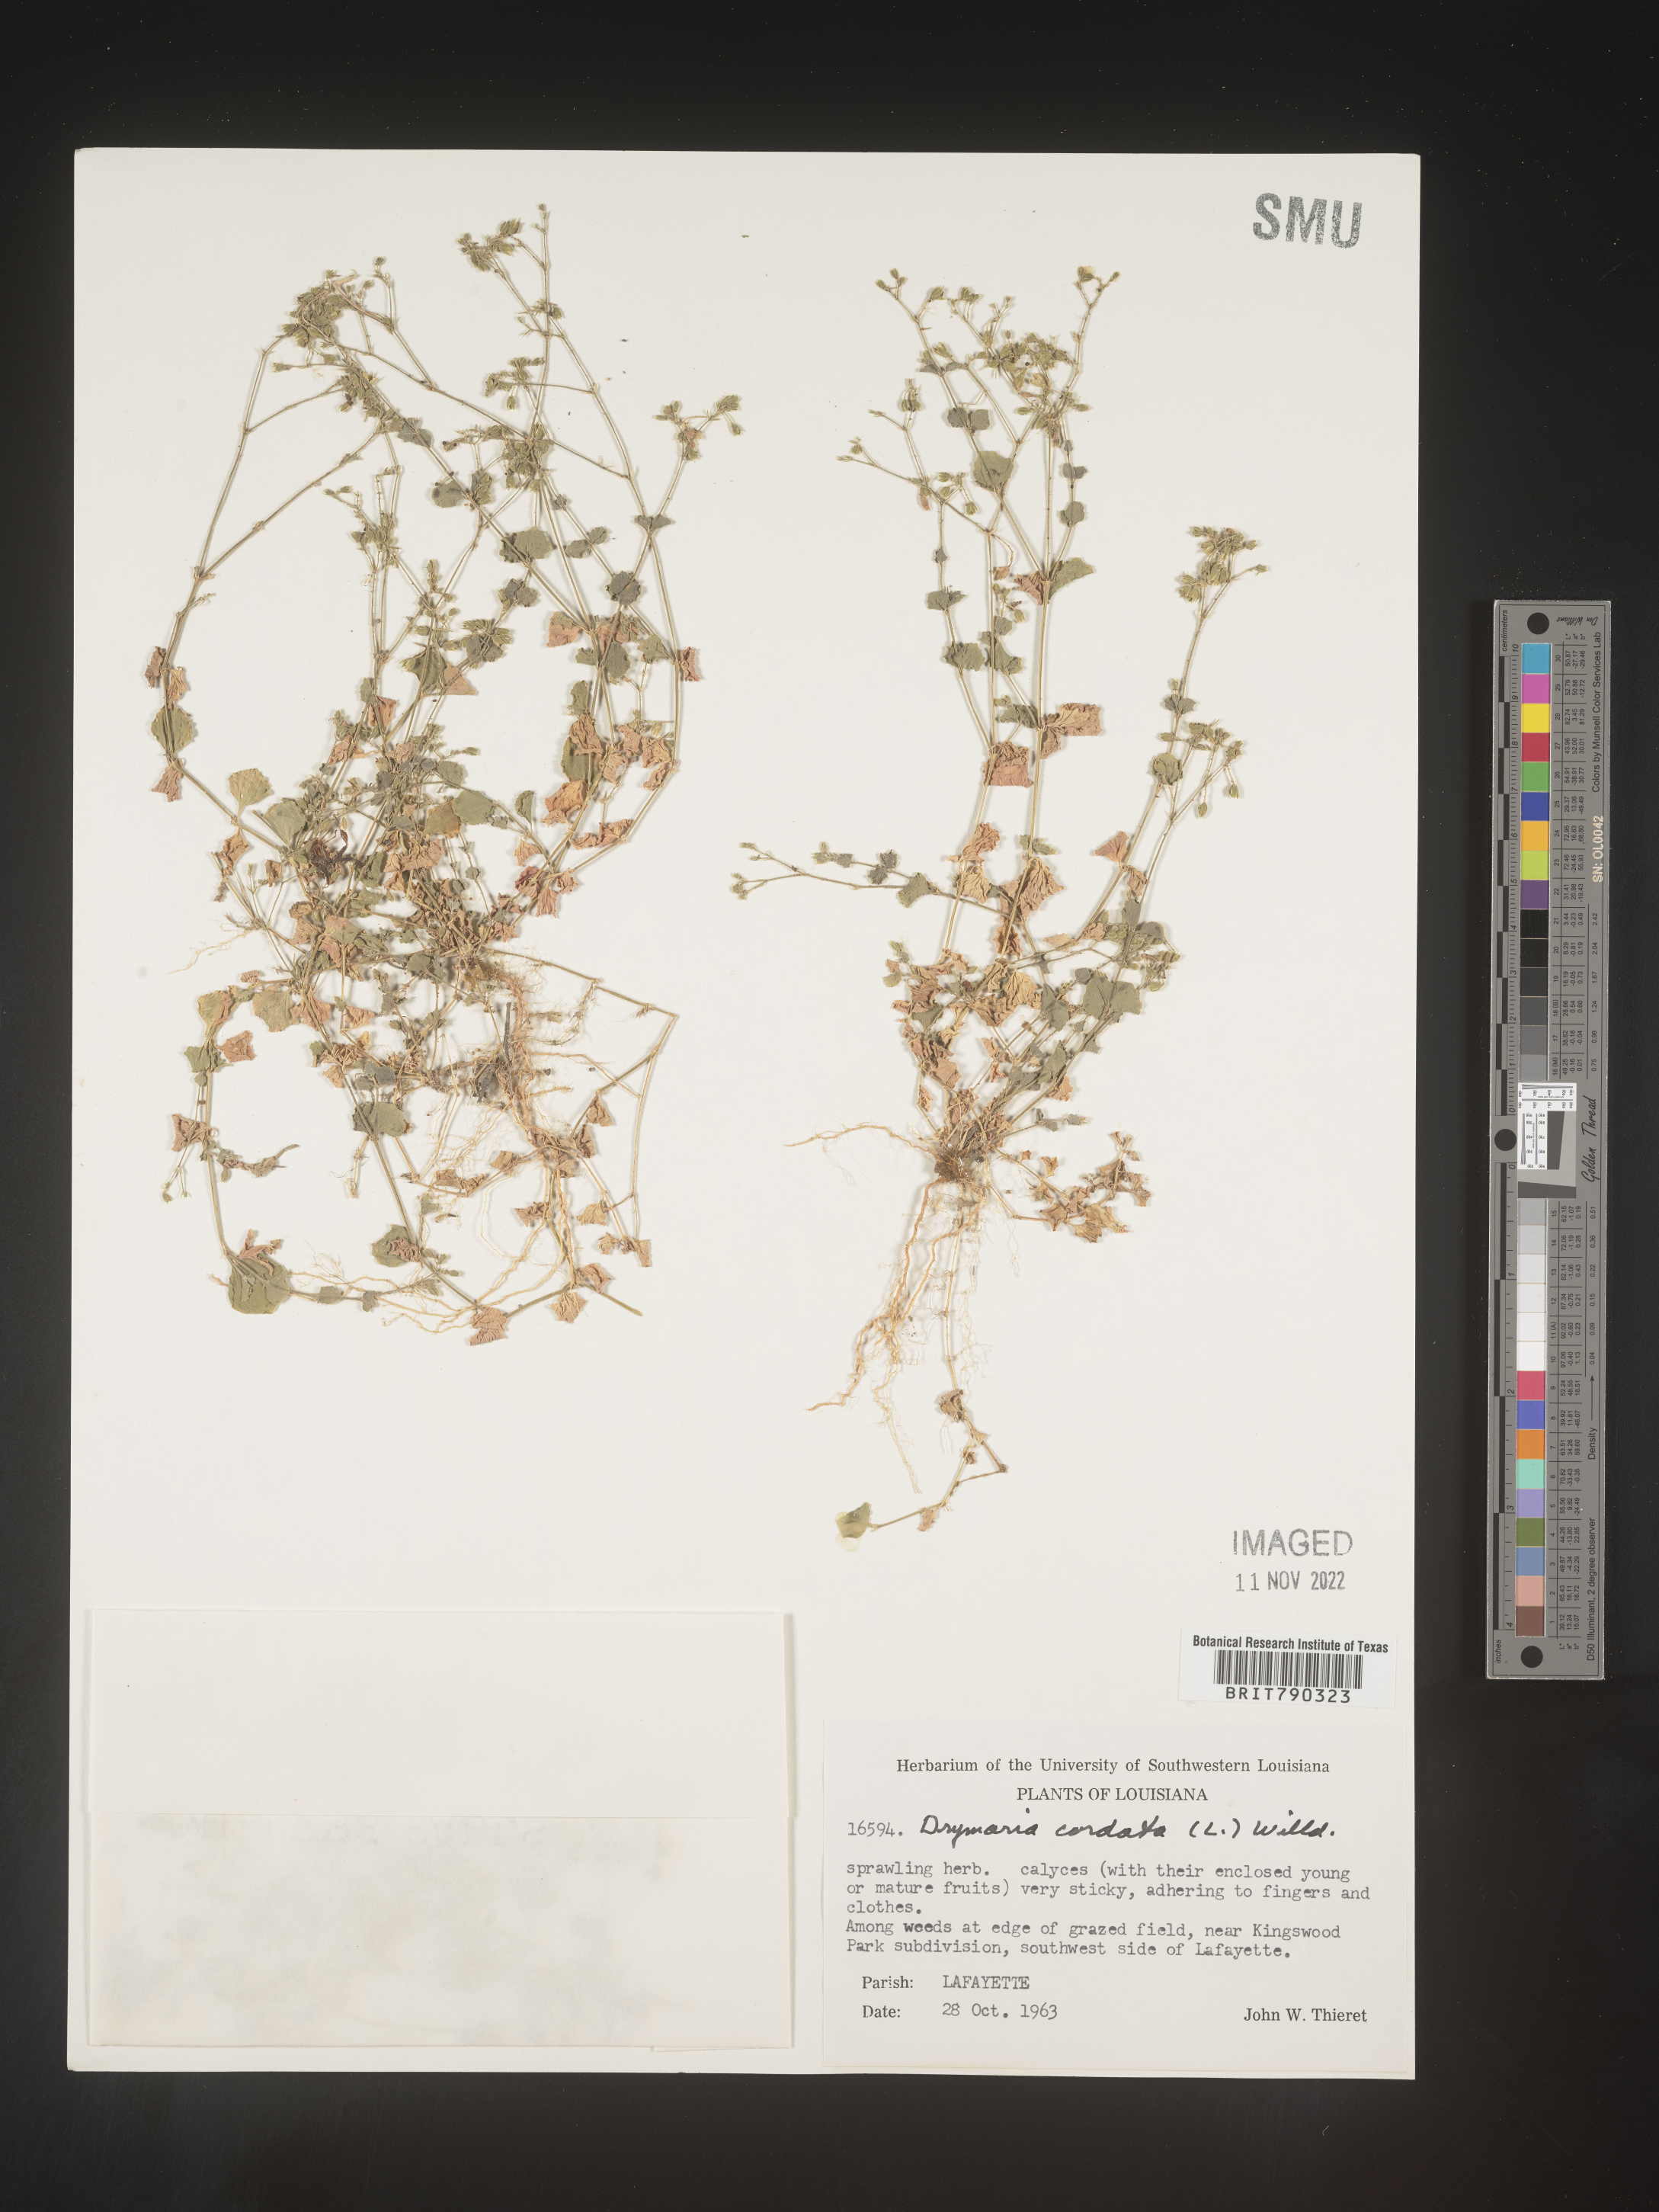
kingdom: Plantae
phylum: Tracheophyta
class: Magnoliopsida
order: Caryophyllales
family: Caryophyllaceae
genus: Drymaria
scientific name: Drymaria
